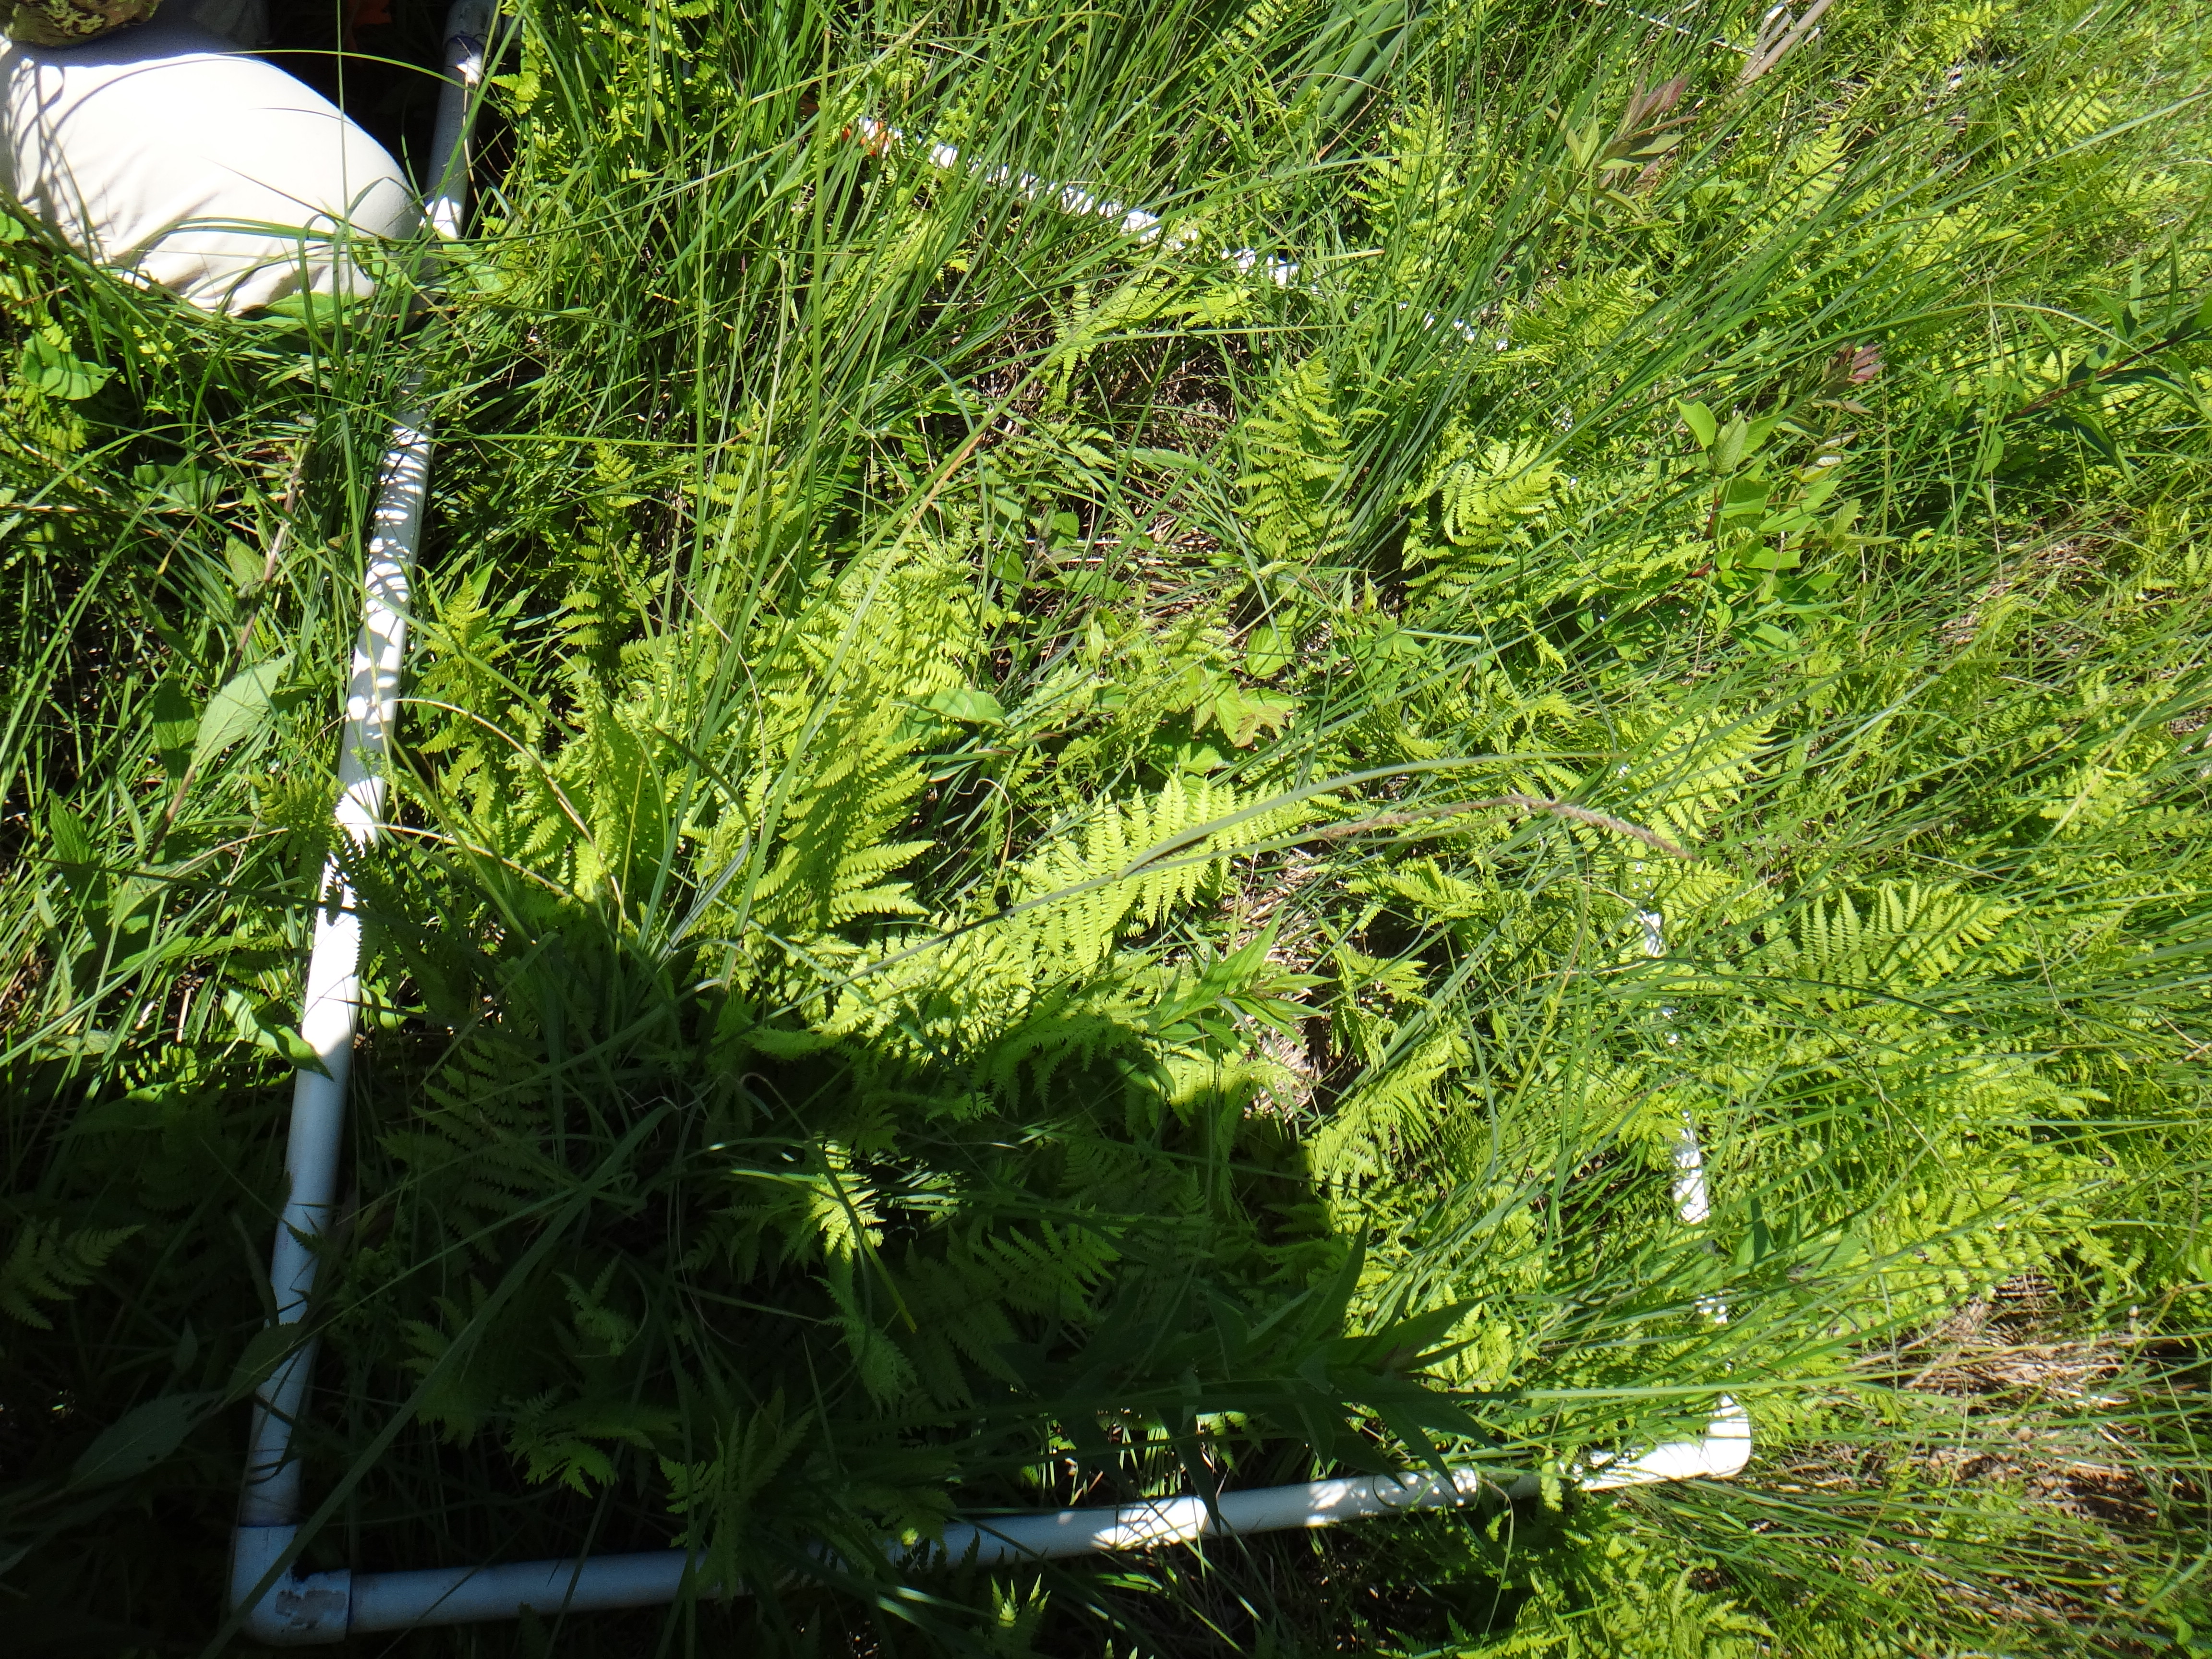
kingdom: Plantae
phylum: Tracheophyta
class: Magnoliopsida
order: Ericales
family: Primulaceae
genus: Lysimachia
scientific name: Lysimachia thyrsiflora
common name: Tufted loosestrife
